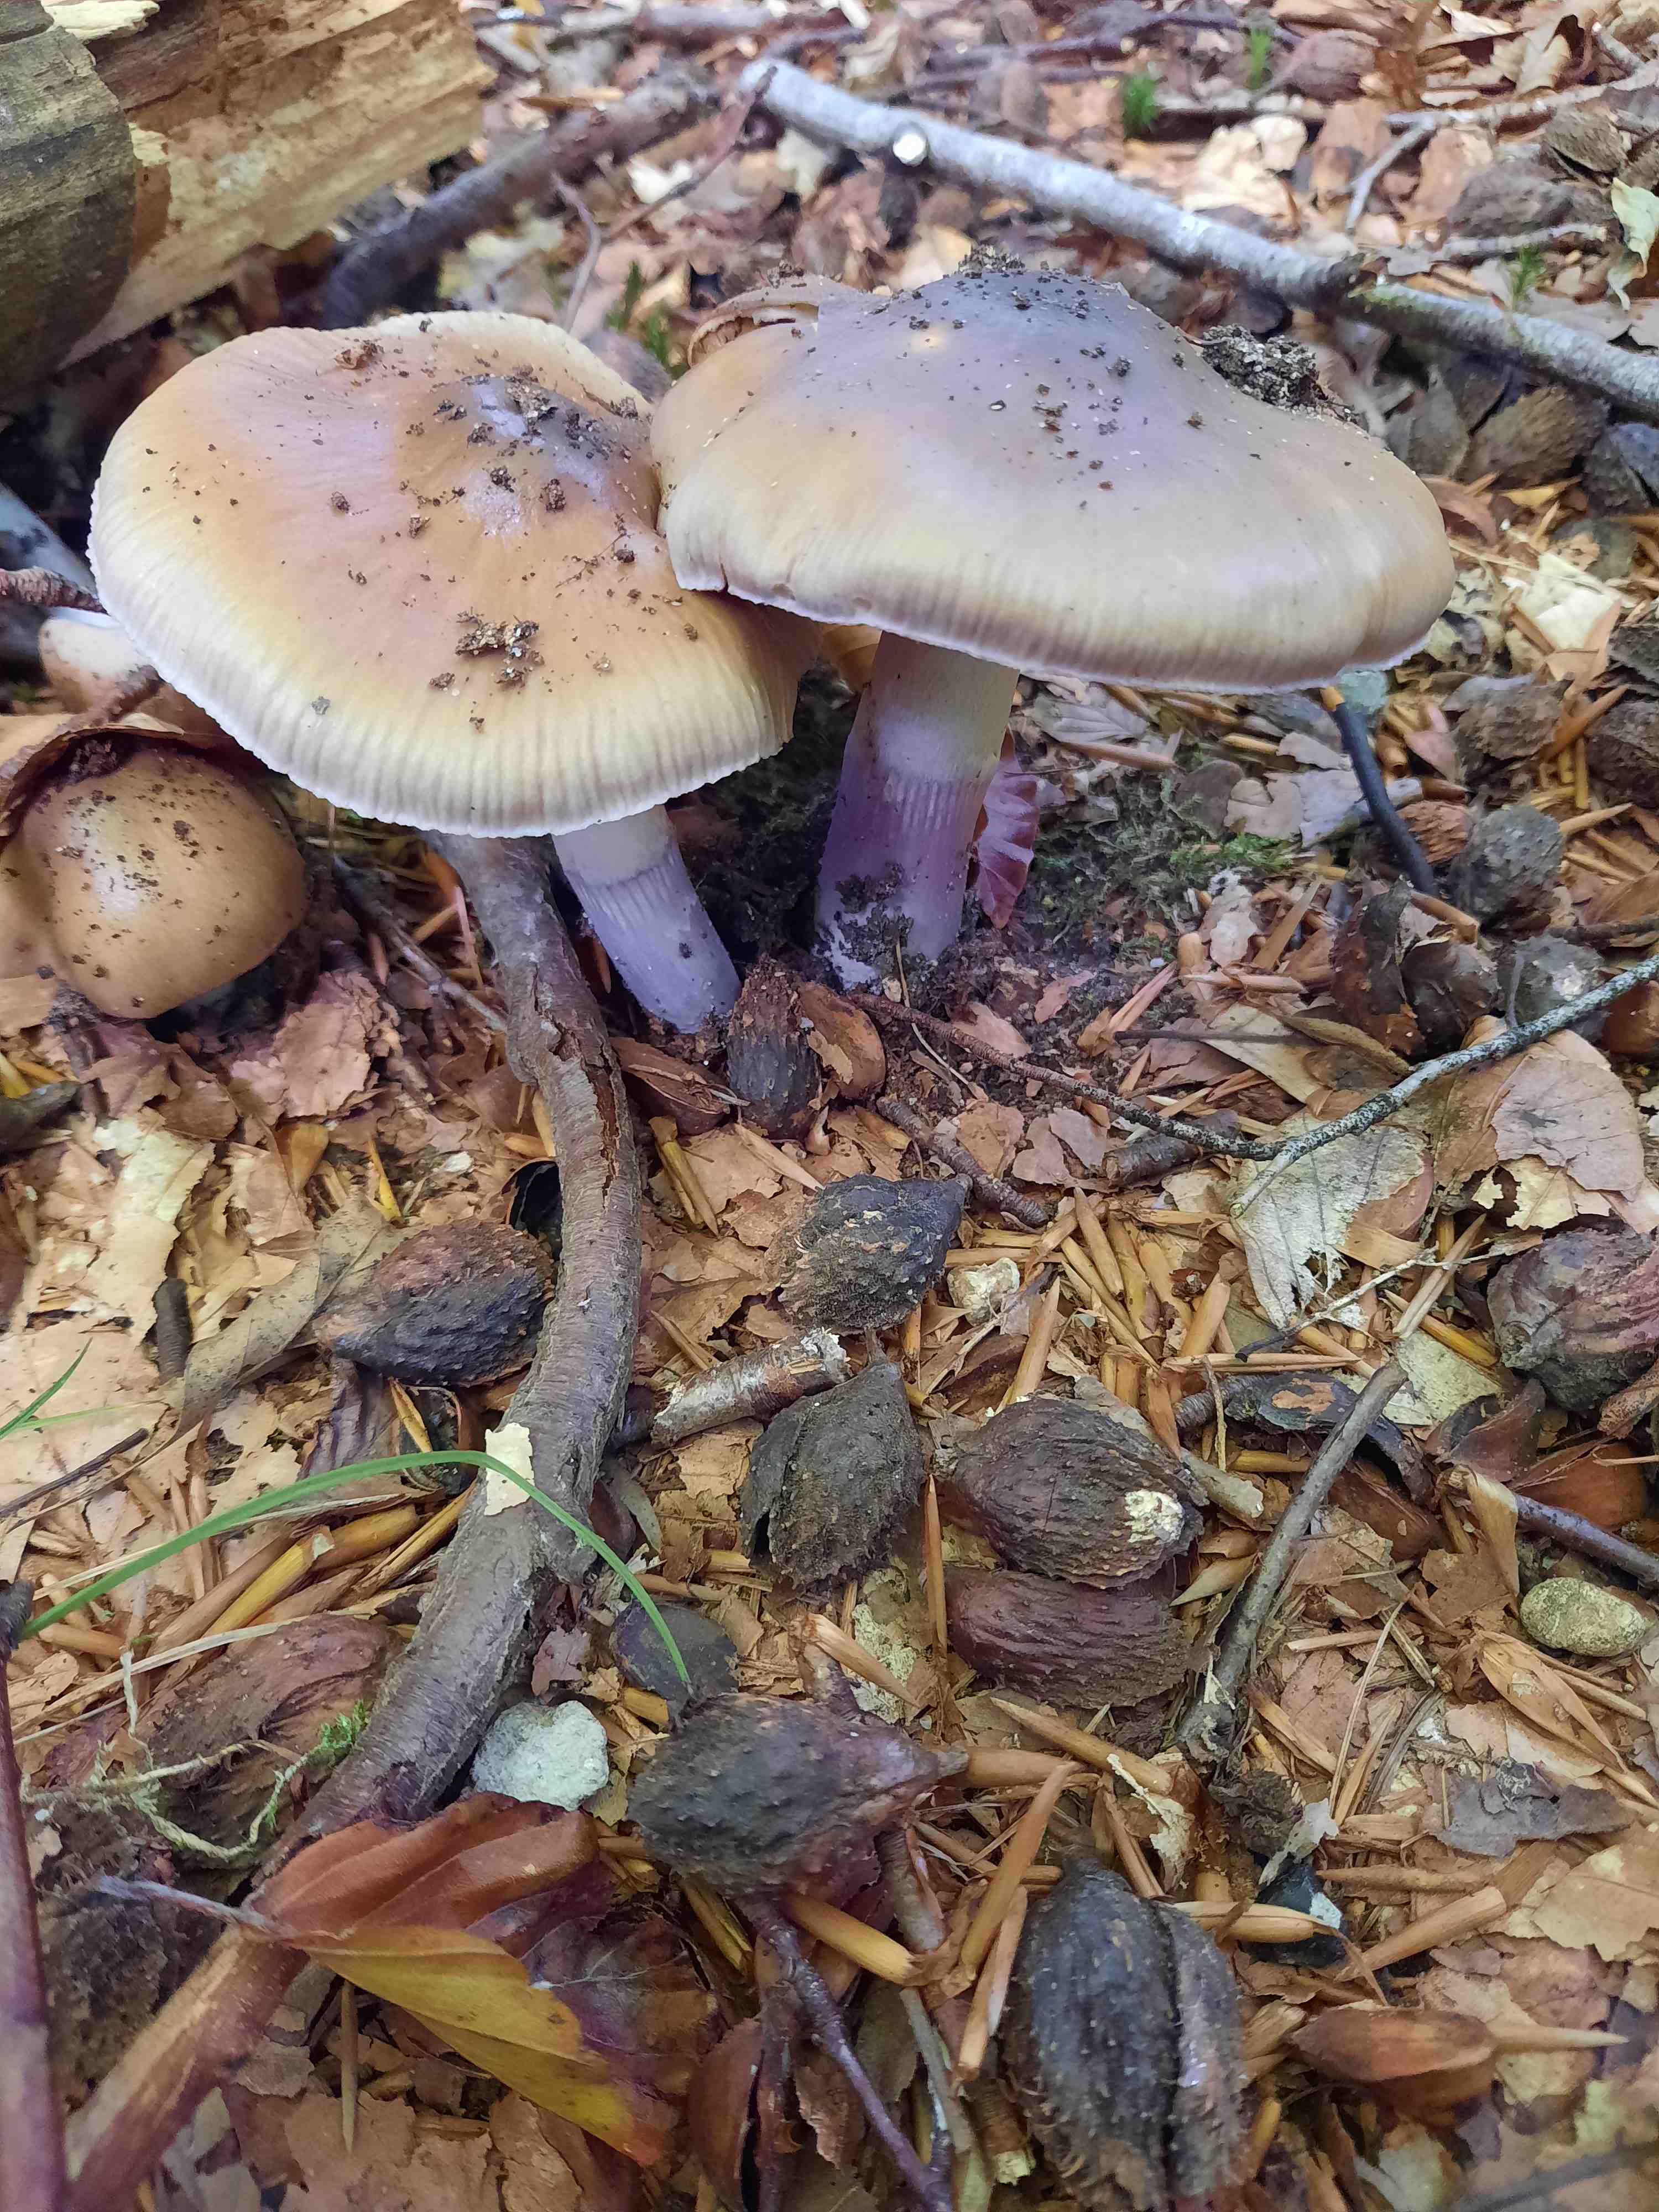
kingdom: Fungi
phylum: Basidiomycota
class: Agaricomycetes
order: Agaricales
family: Cortinariaceae
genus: Cortinarius
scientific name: Cortinarius elatior
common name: høj slørhat
